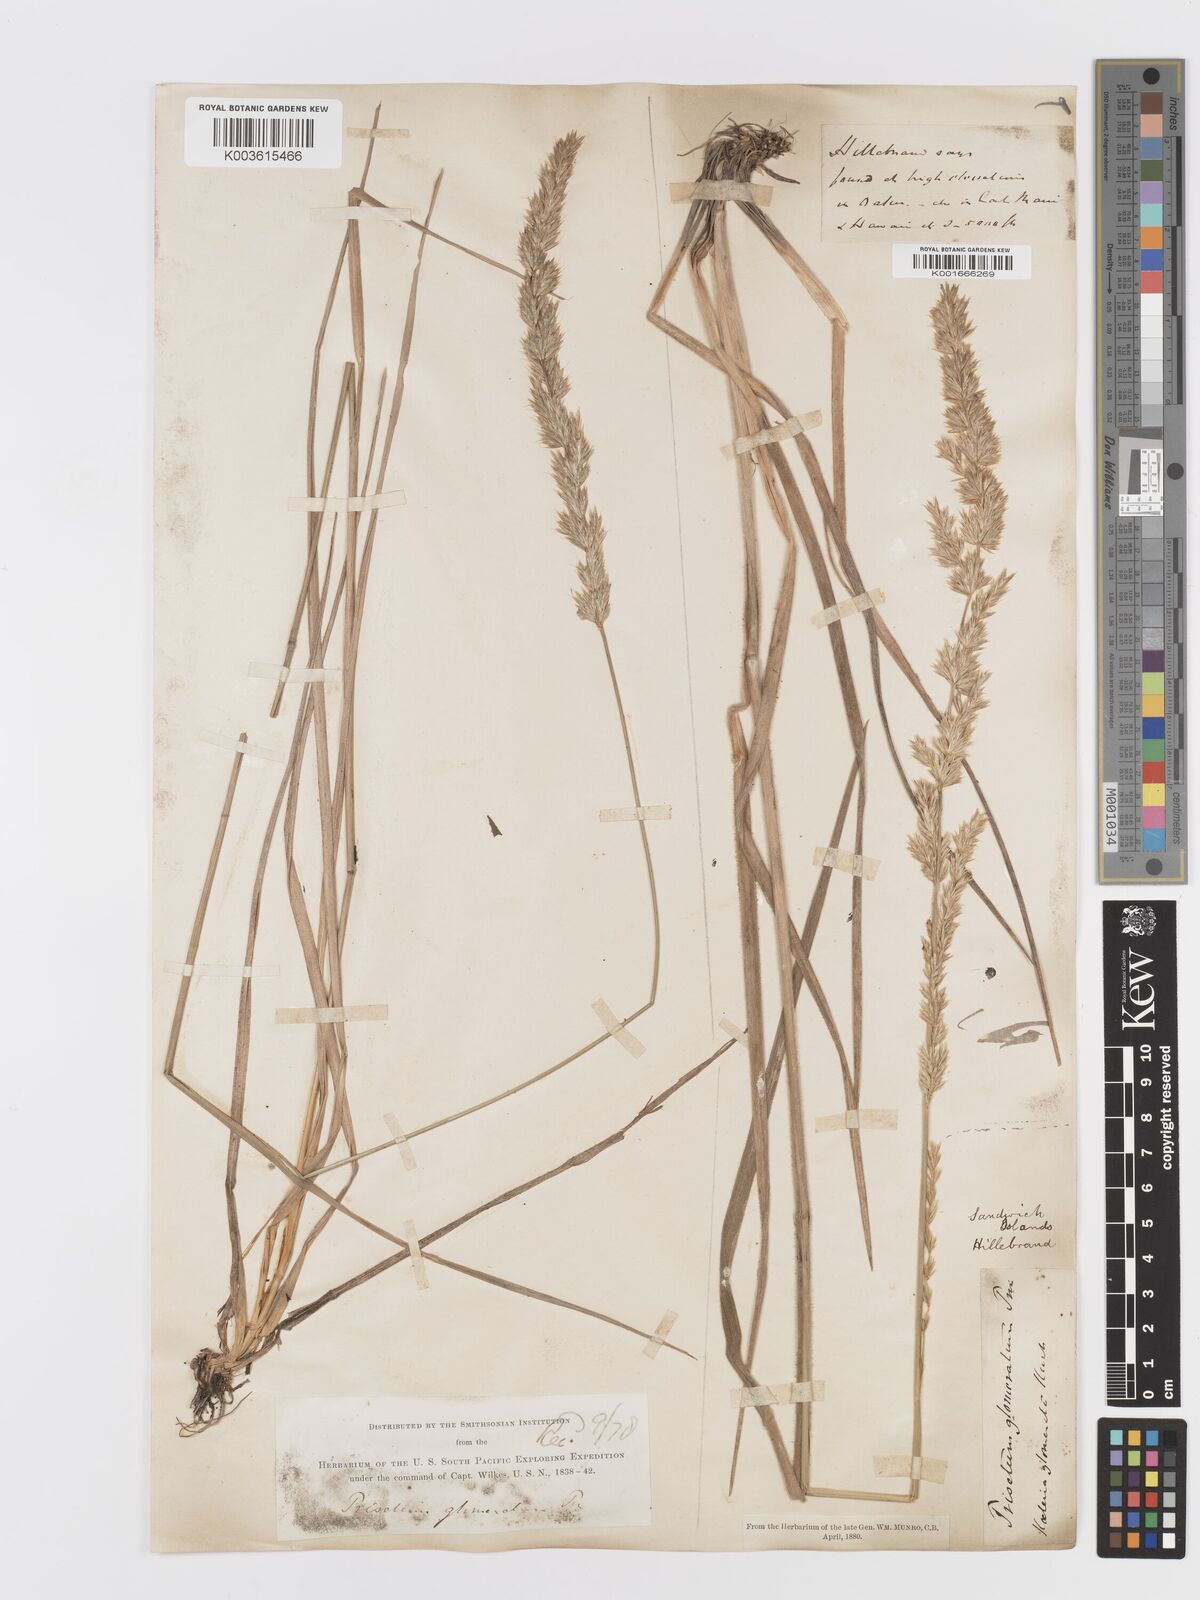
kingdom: Plantae
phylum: Tracheophyta
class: Liliopsida
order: Poales
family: Poaceae
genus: Trisetum
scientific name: Trisetum glomeratum
